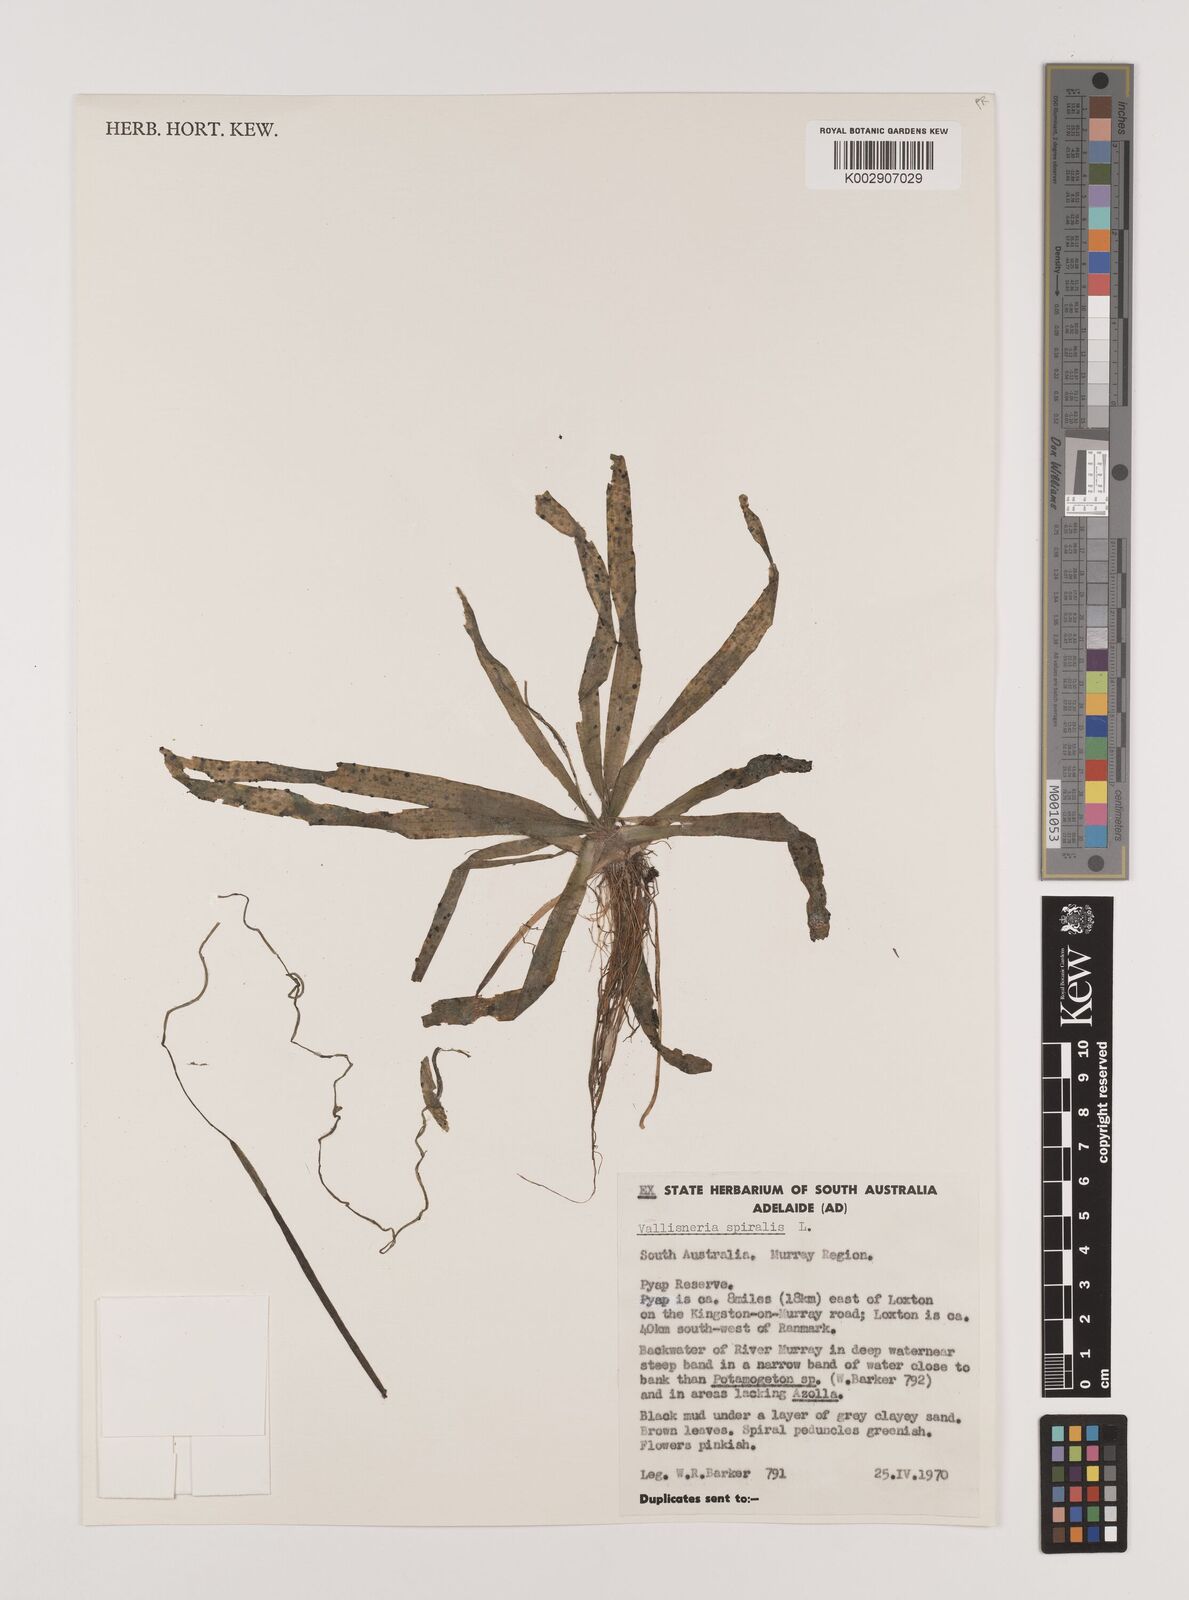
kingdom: Plantae
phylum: Tracheophyta
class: Liliopsida
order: Alismatales
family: Hydrocharitaceae
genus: Vallisneria
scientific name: Vallisneria spiralis
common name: Tapegrass
